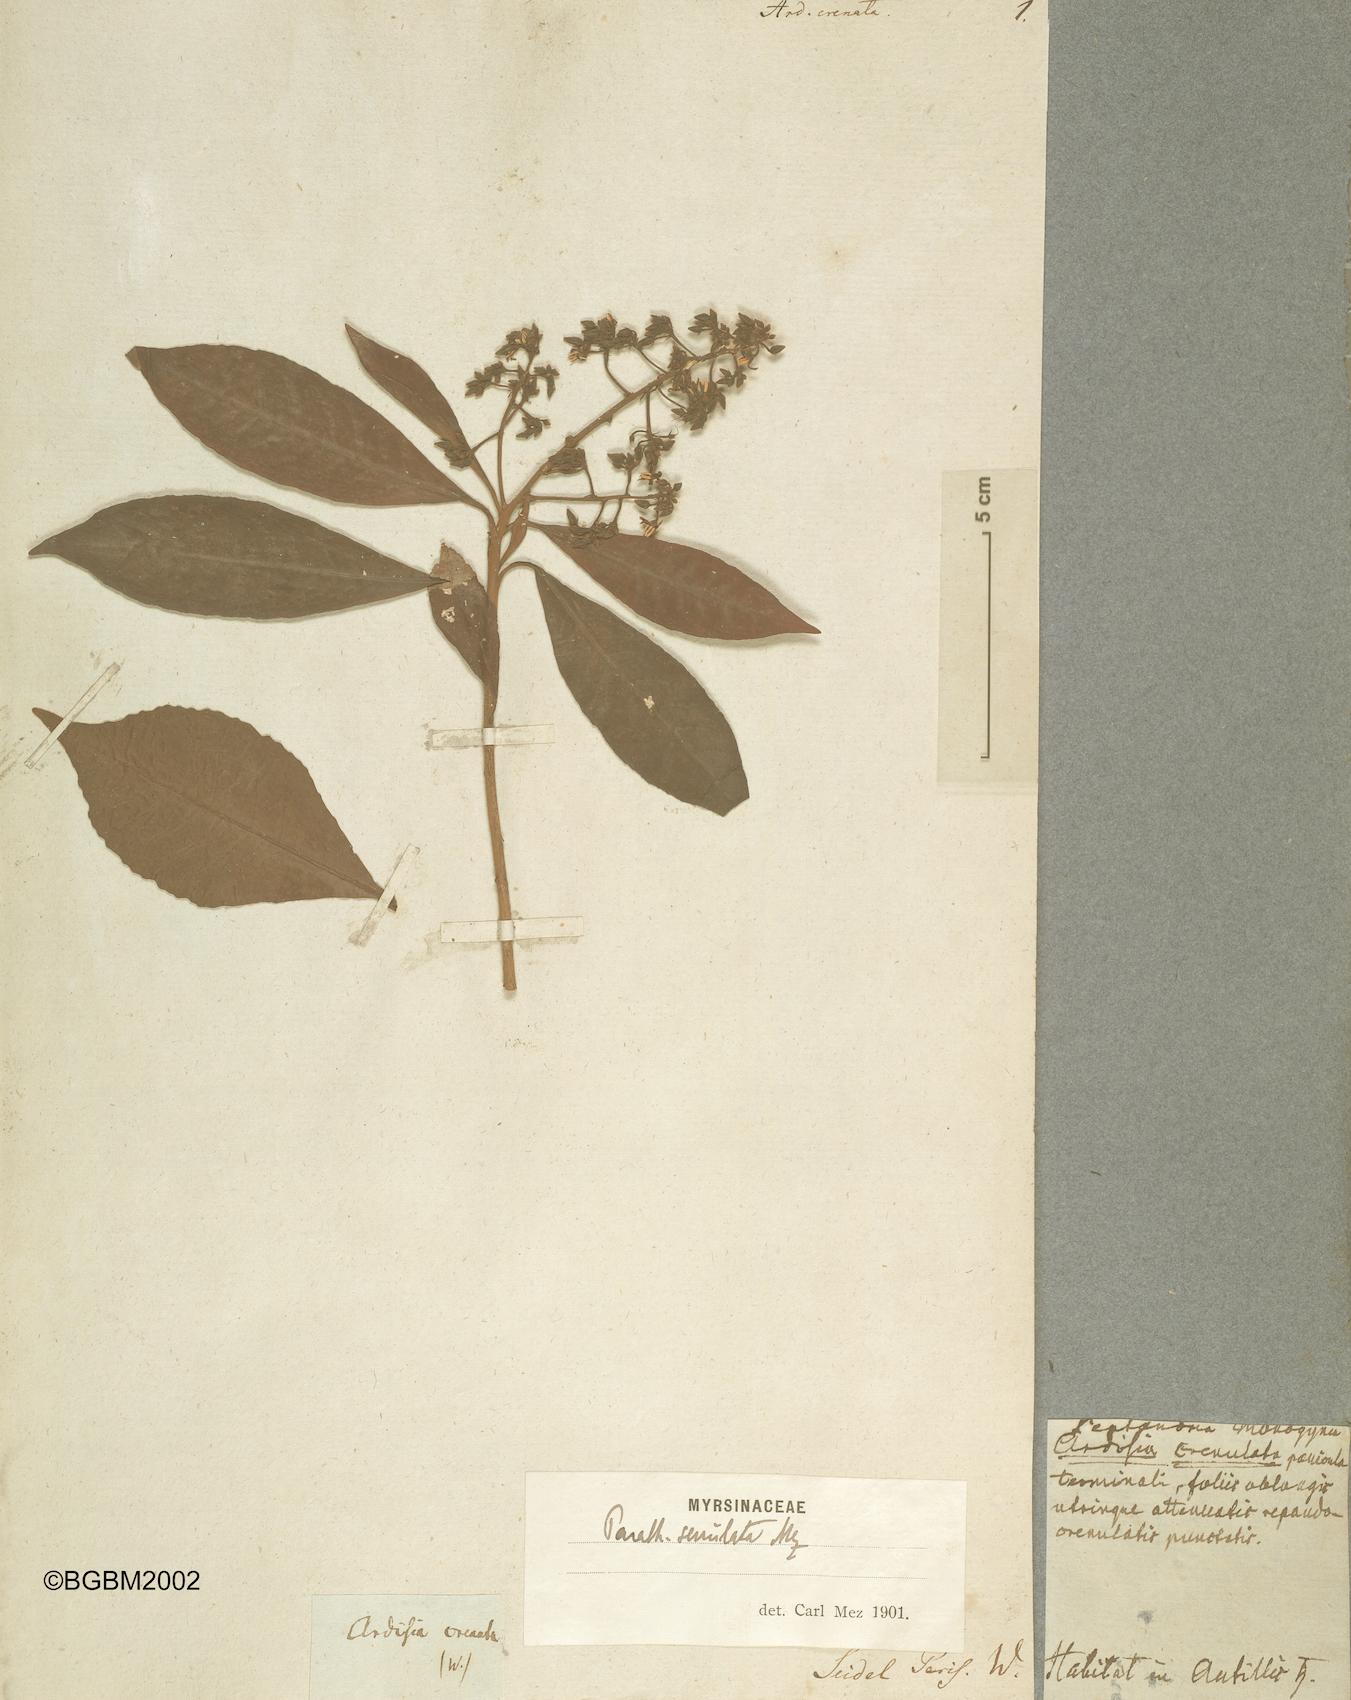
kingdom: Plantae
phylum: Tracheophyta
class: Magnoliopsida
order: Ericales
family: Primulaceae
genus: Parathesis
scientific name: Parathesis crenulata
